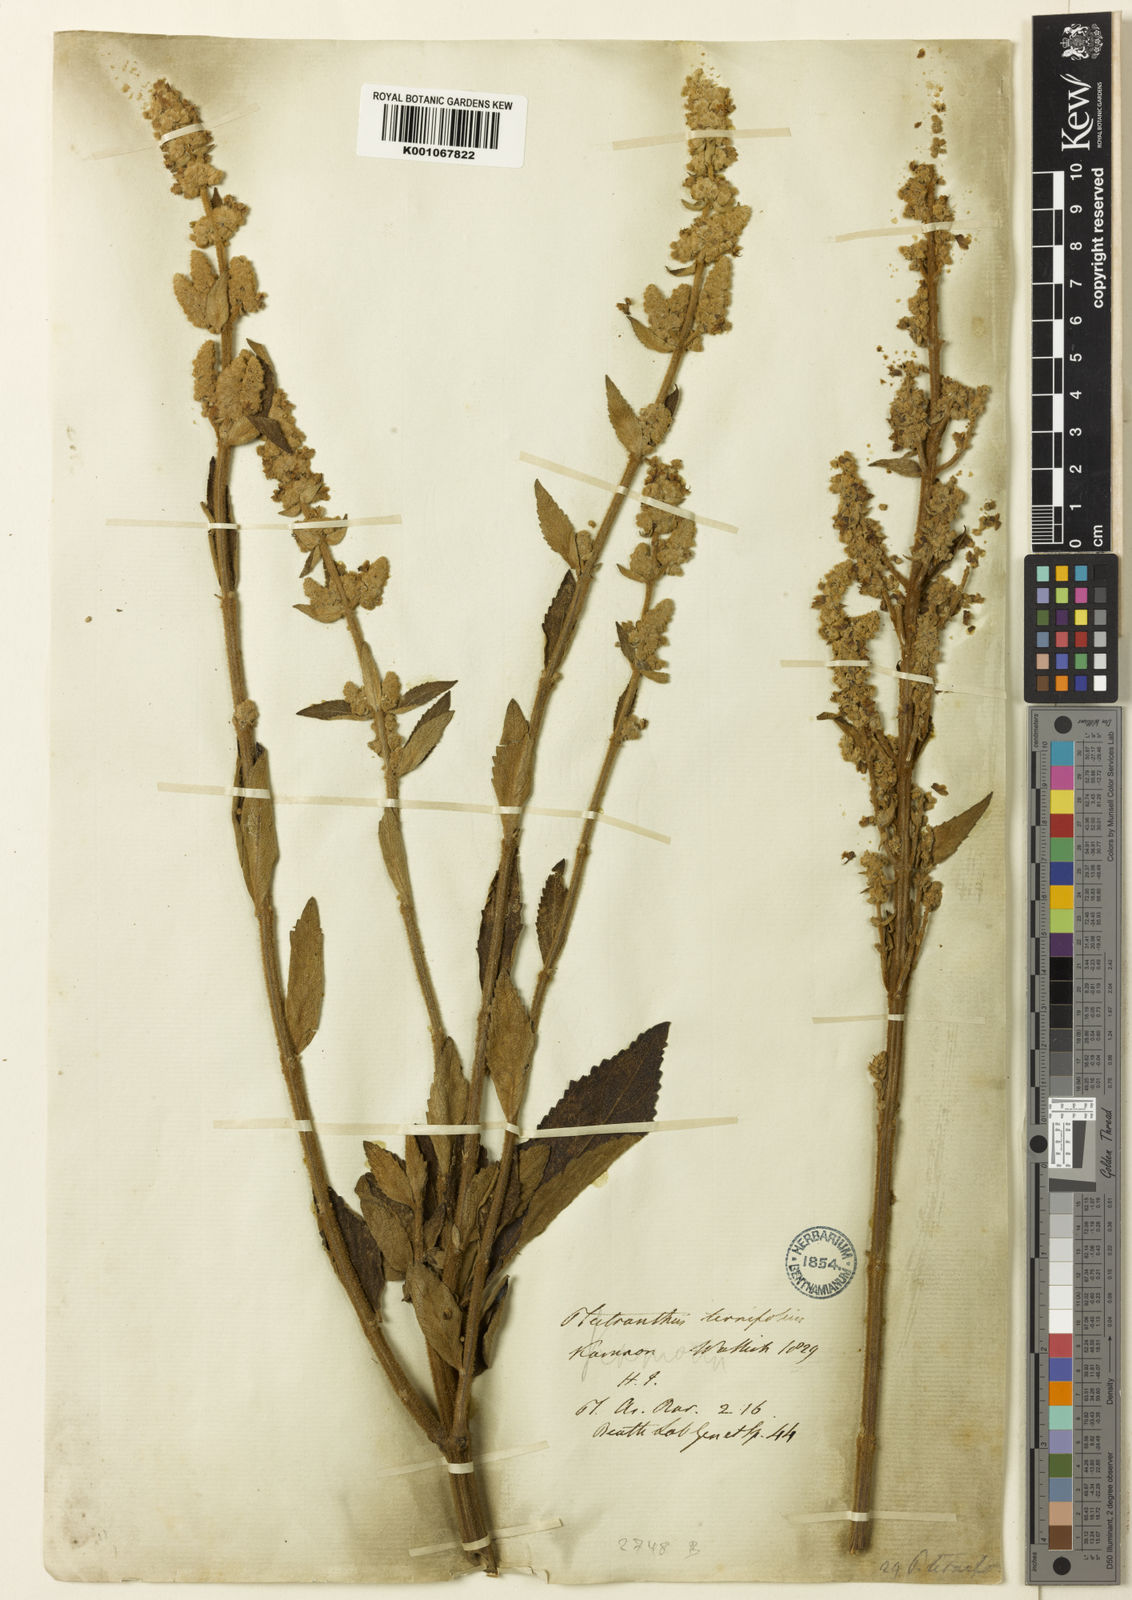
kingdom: Plantae
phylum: Tracheophyta
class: Magnoliopsida
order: Lamiales
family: Lamiaceae
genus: Isodon
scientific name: Isodon
